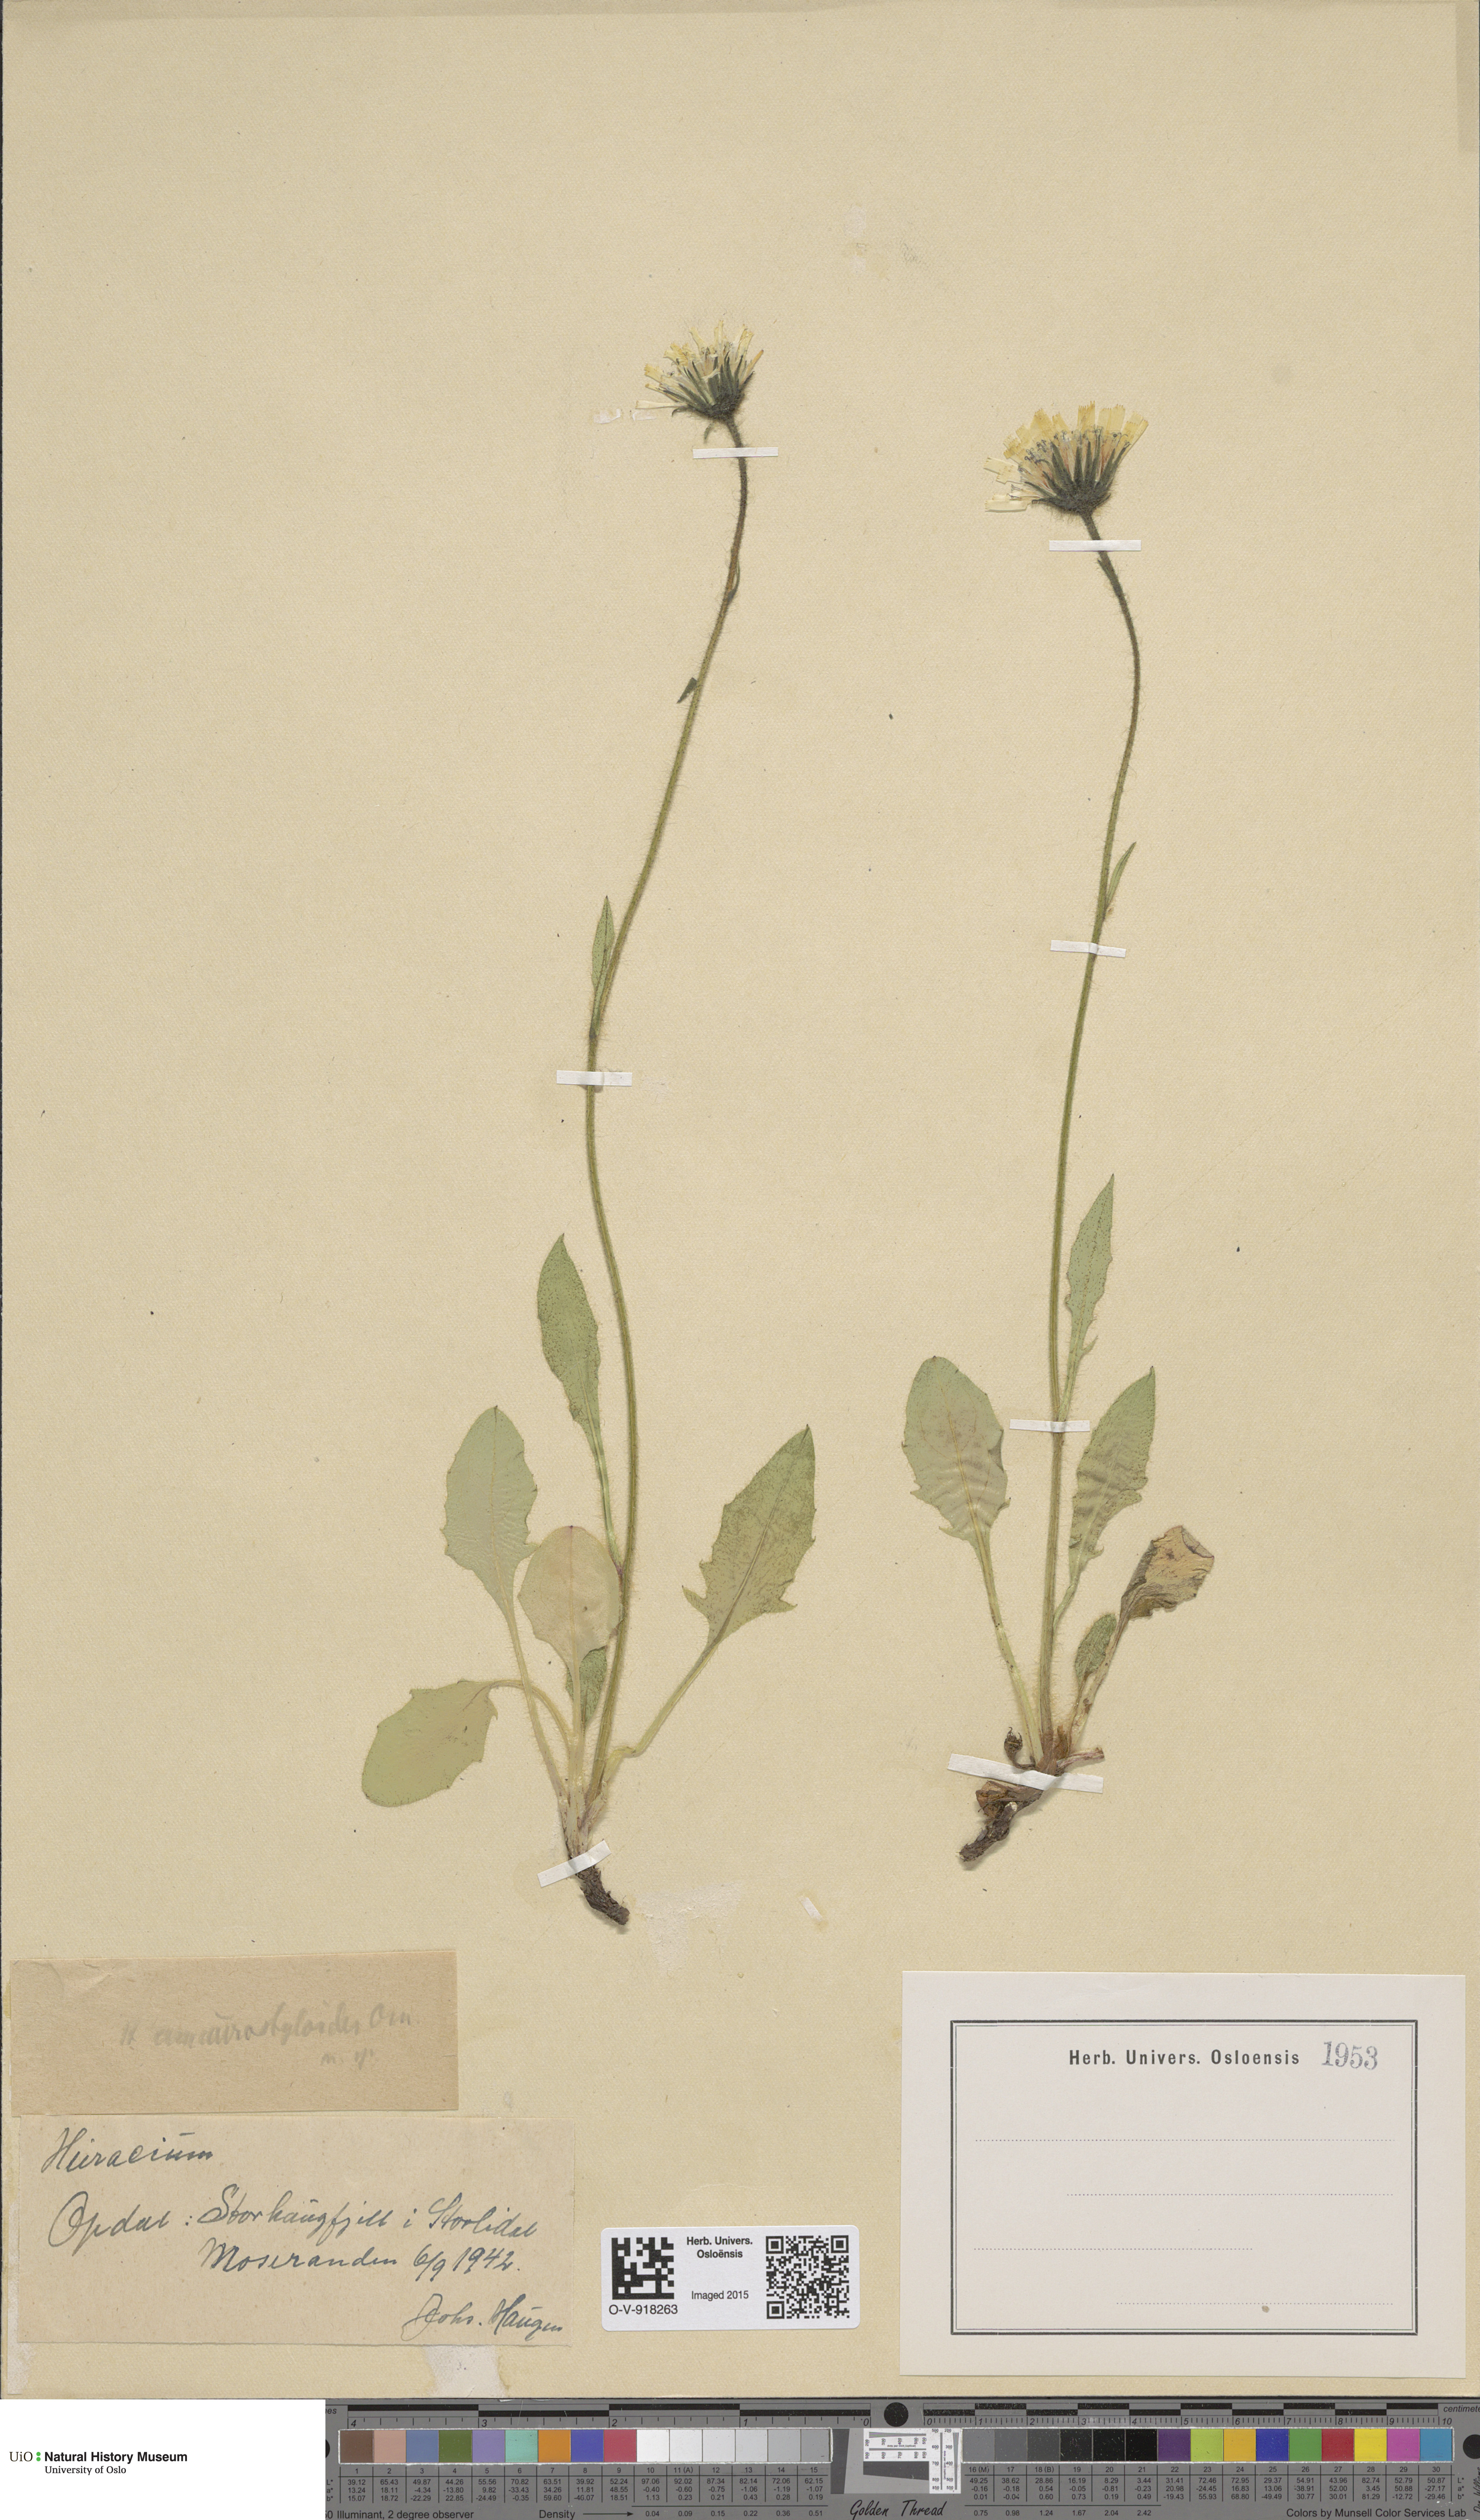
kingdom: Plantae
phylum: Tracheophyta
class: Magnoliopsida
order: Asterales
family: Asteraceae
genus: Hieracium
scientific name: Hieracium
